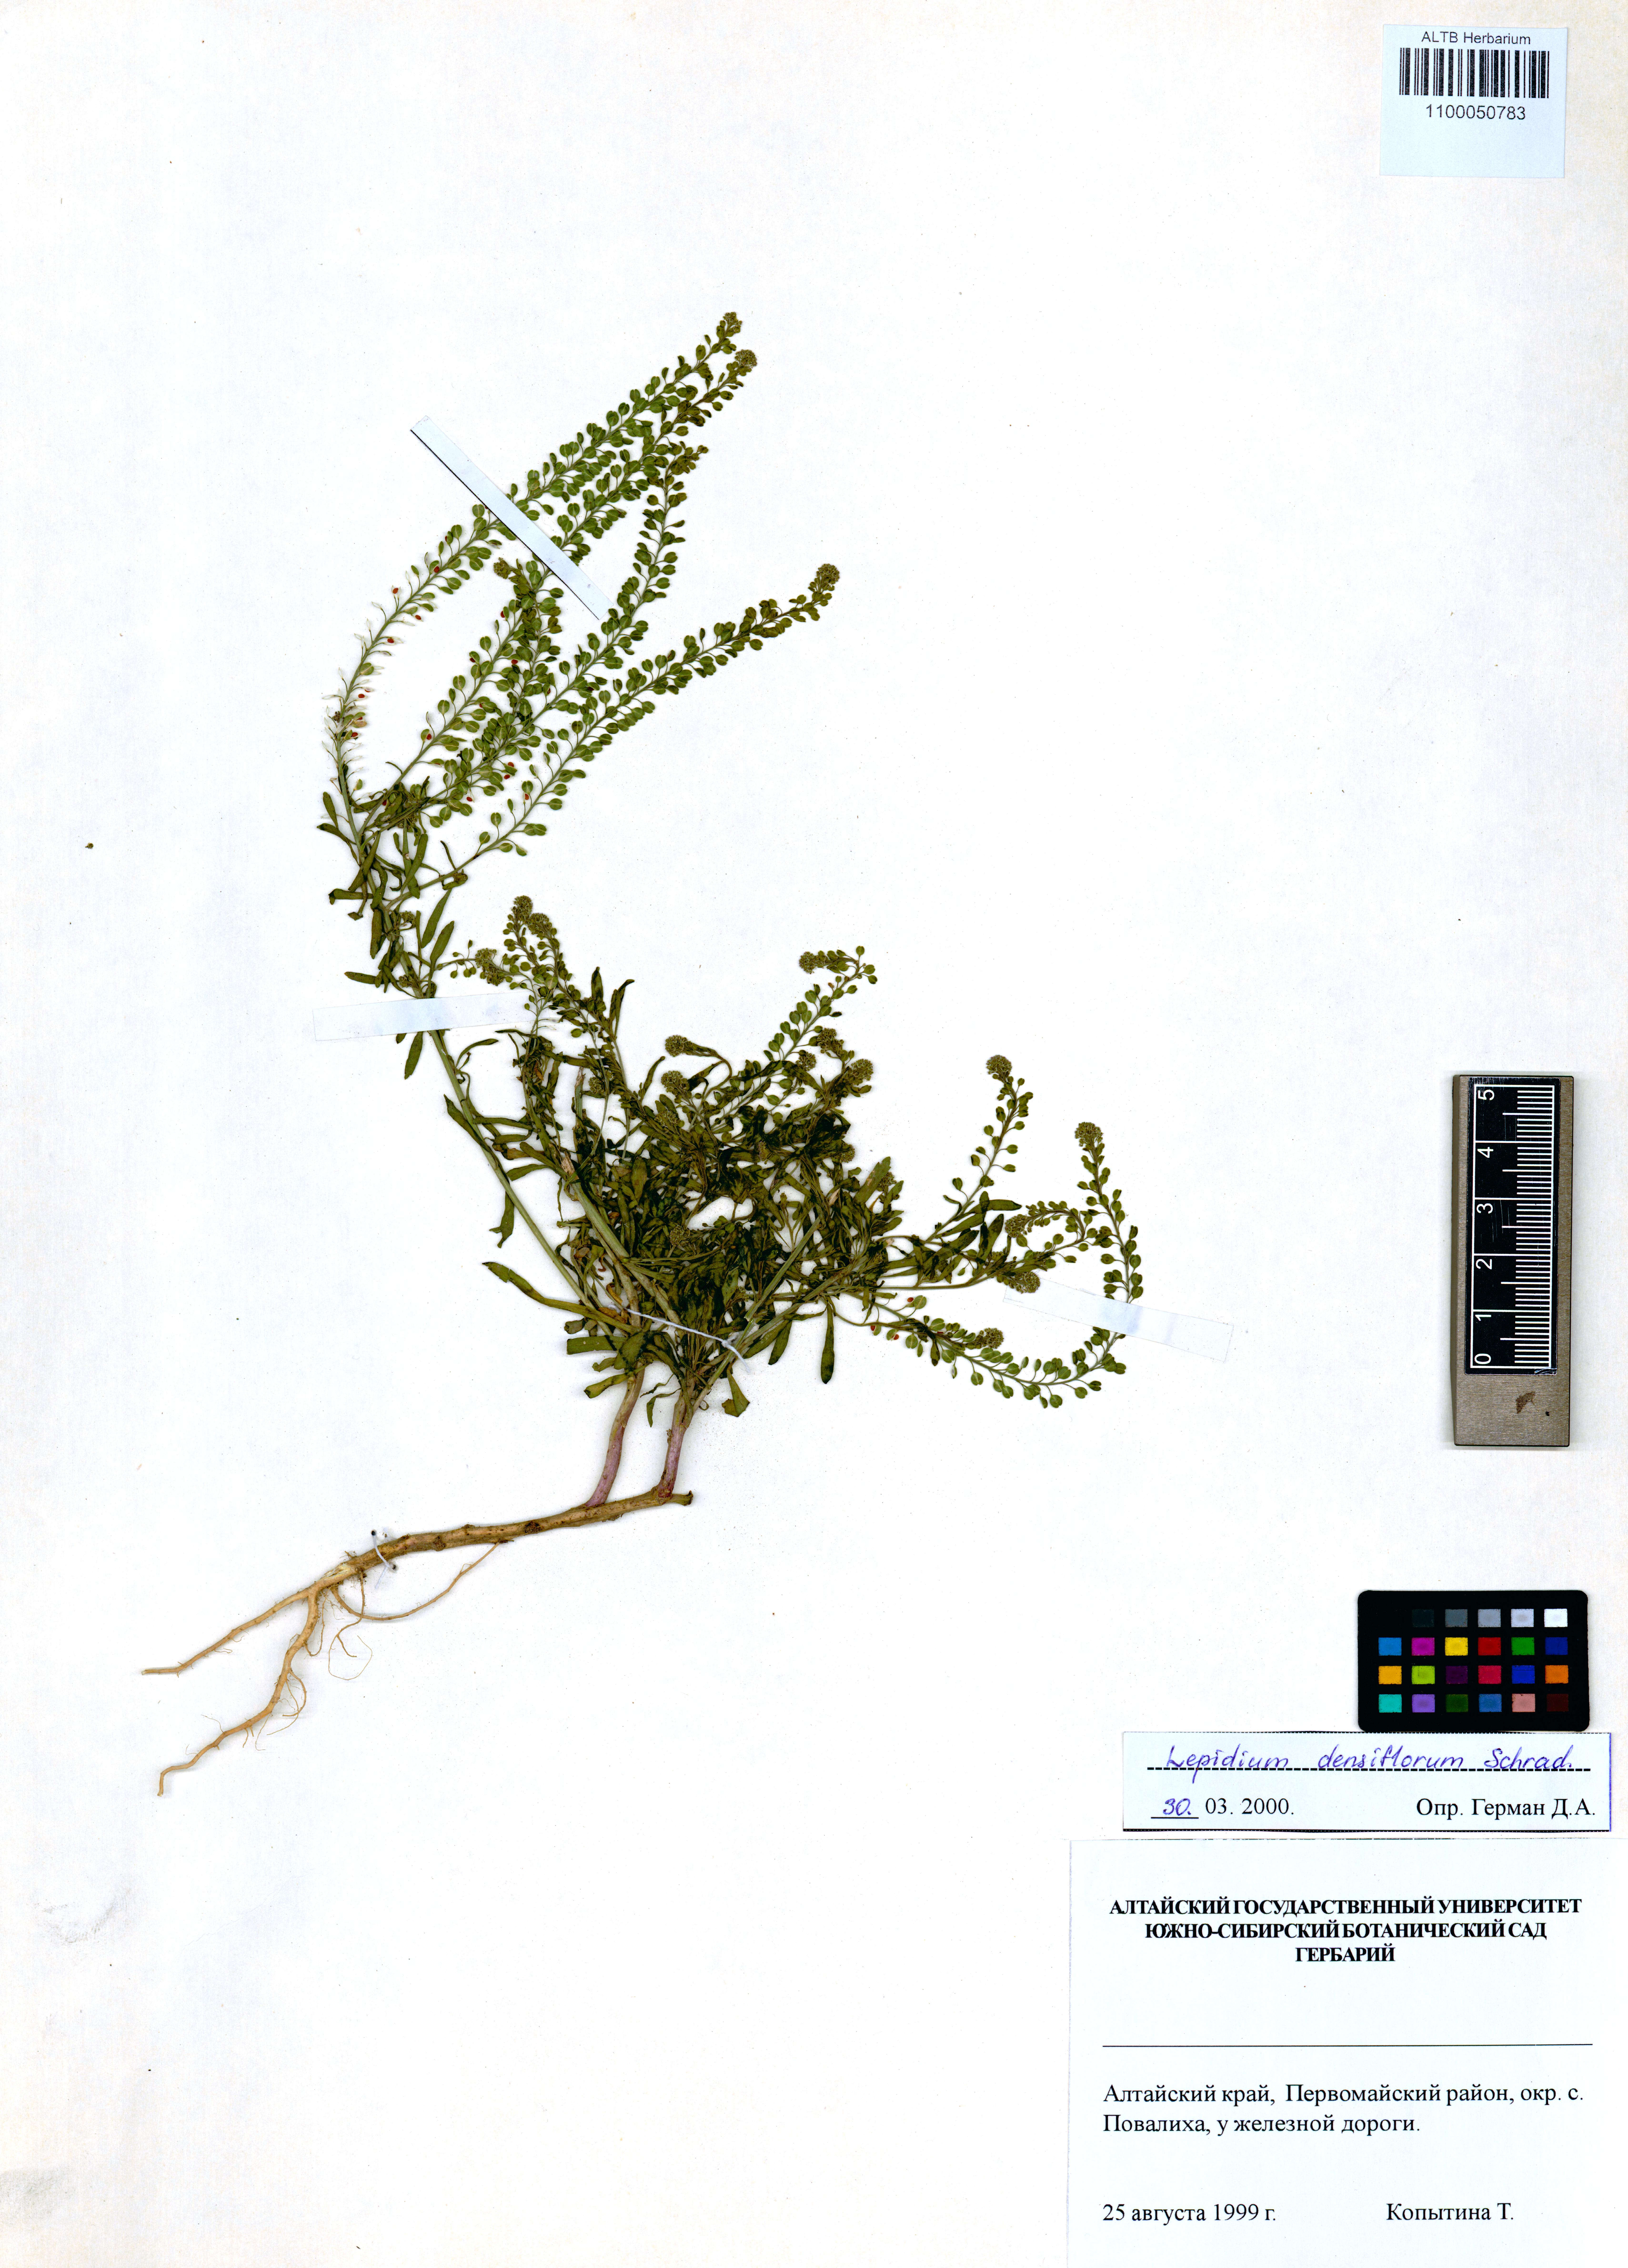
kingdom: Plantae
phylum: Tracheophyta
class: Magnoliopsida
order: Brassicales
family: Brassicaceae
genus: Lepidium
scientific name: Lepidium densiflorum
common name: Miner's pepperwort
